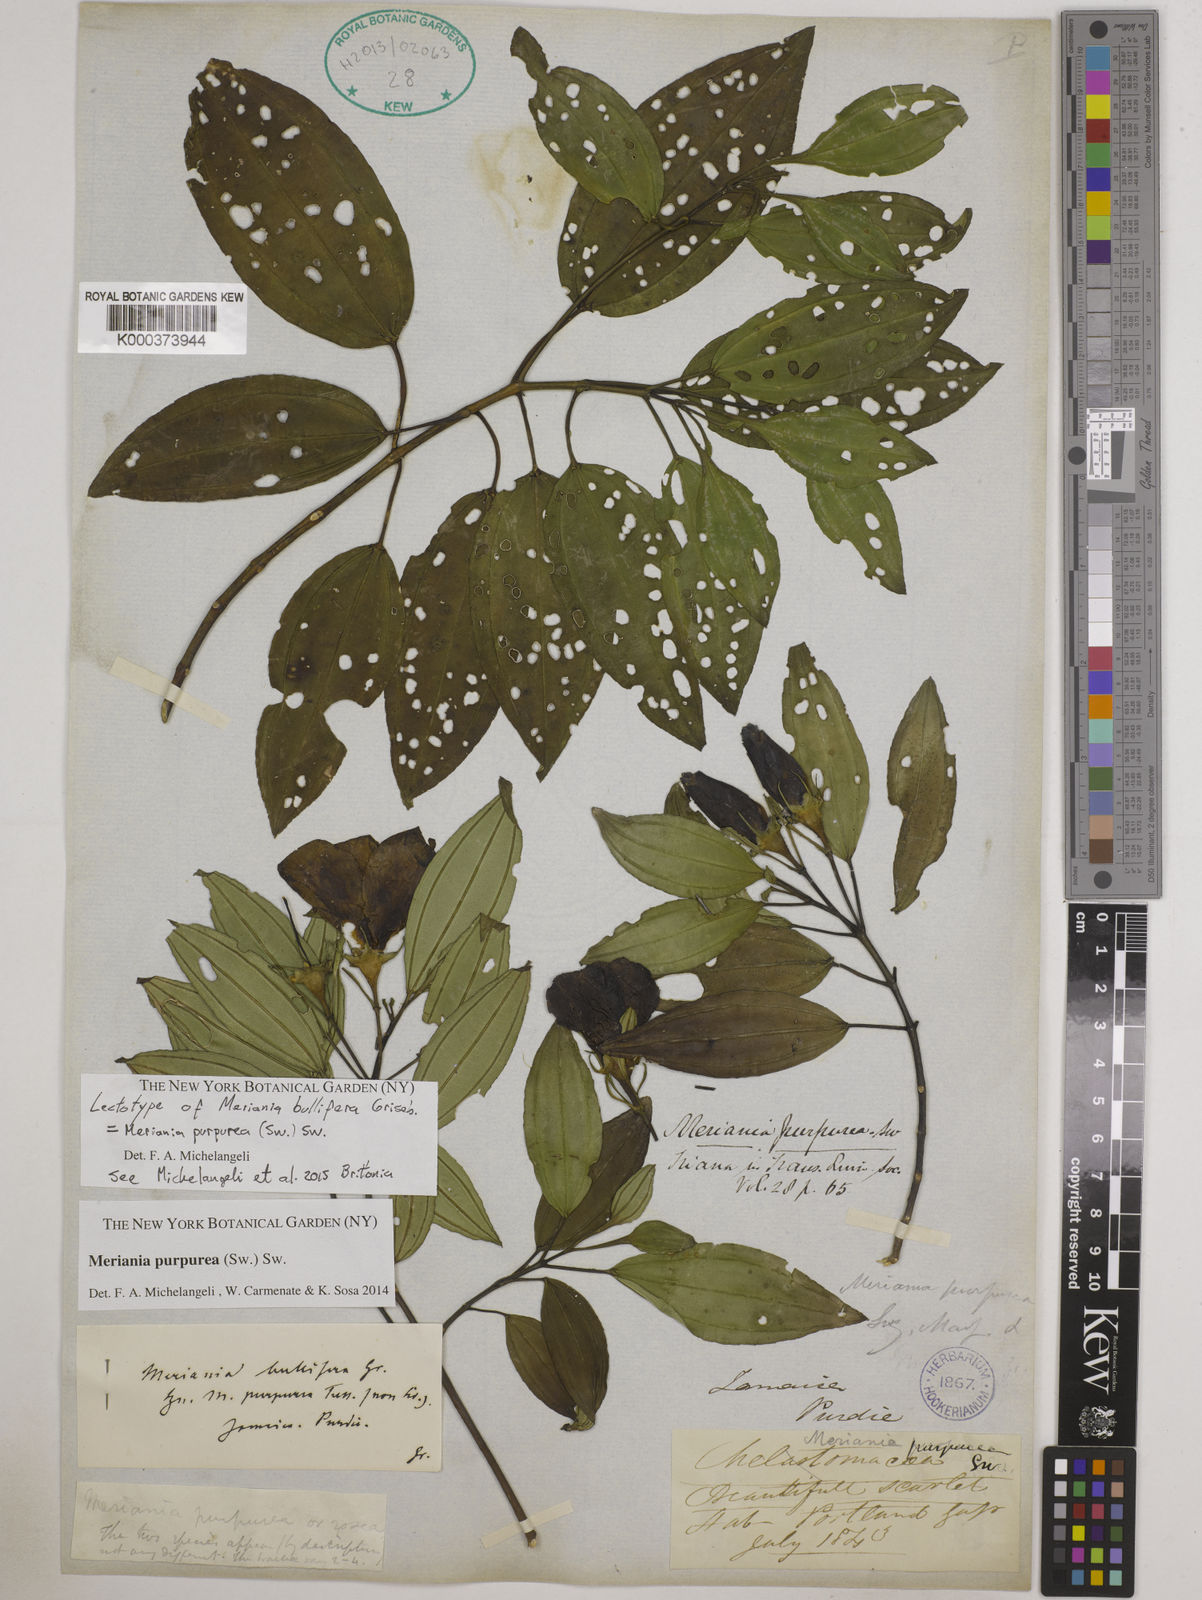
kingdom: Plantae
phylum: Tracheophyta
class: Magnoliopsida
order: Myrtales
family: Melastomataceae
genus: Meriania
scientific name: Meriania purpurea
